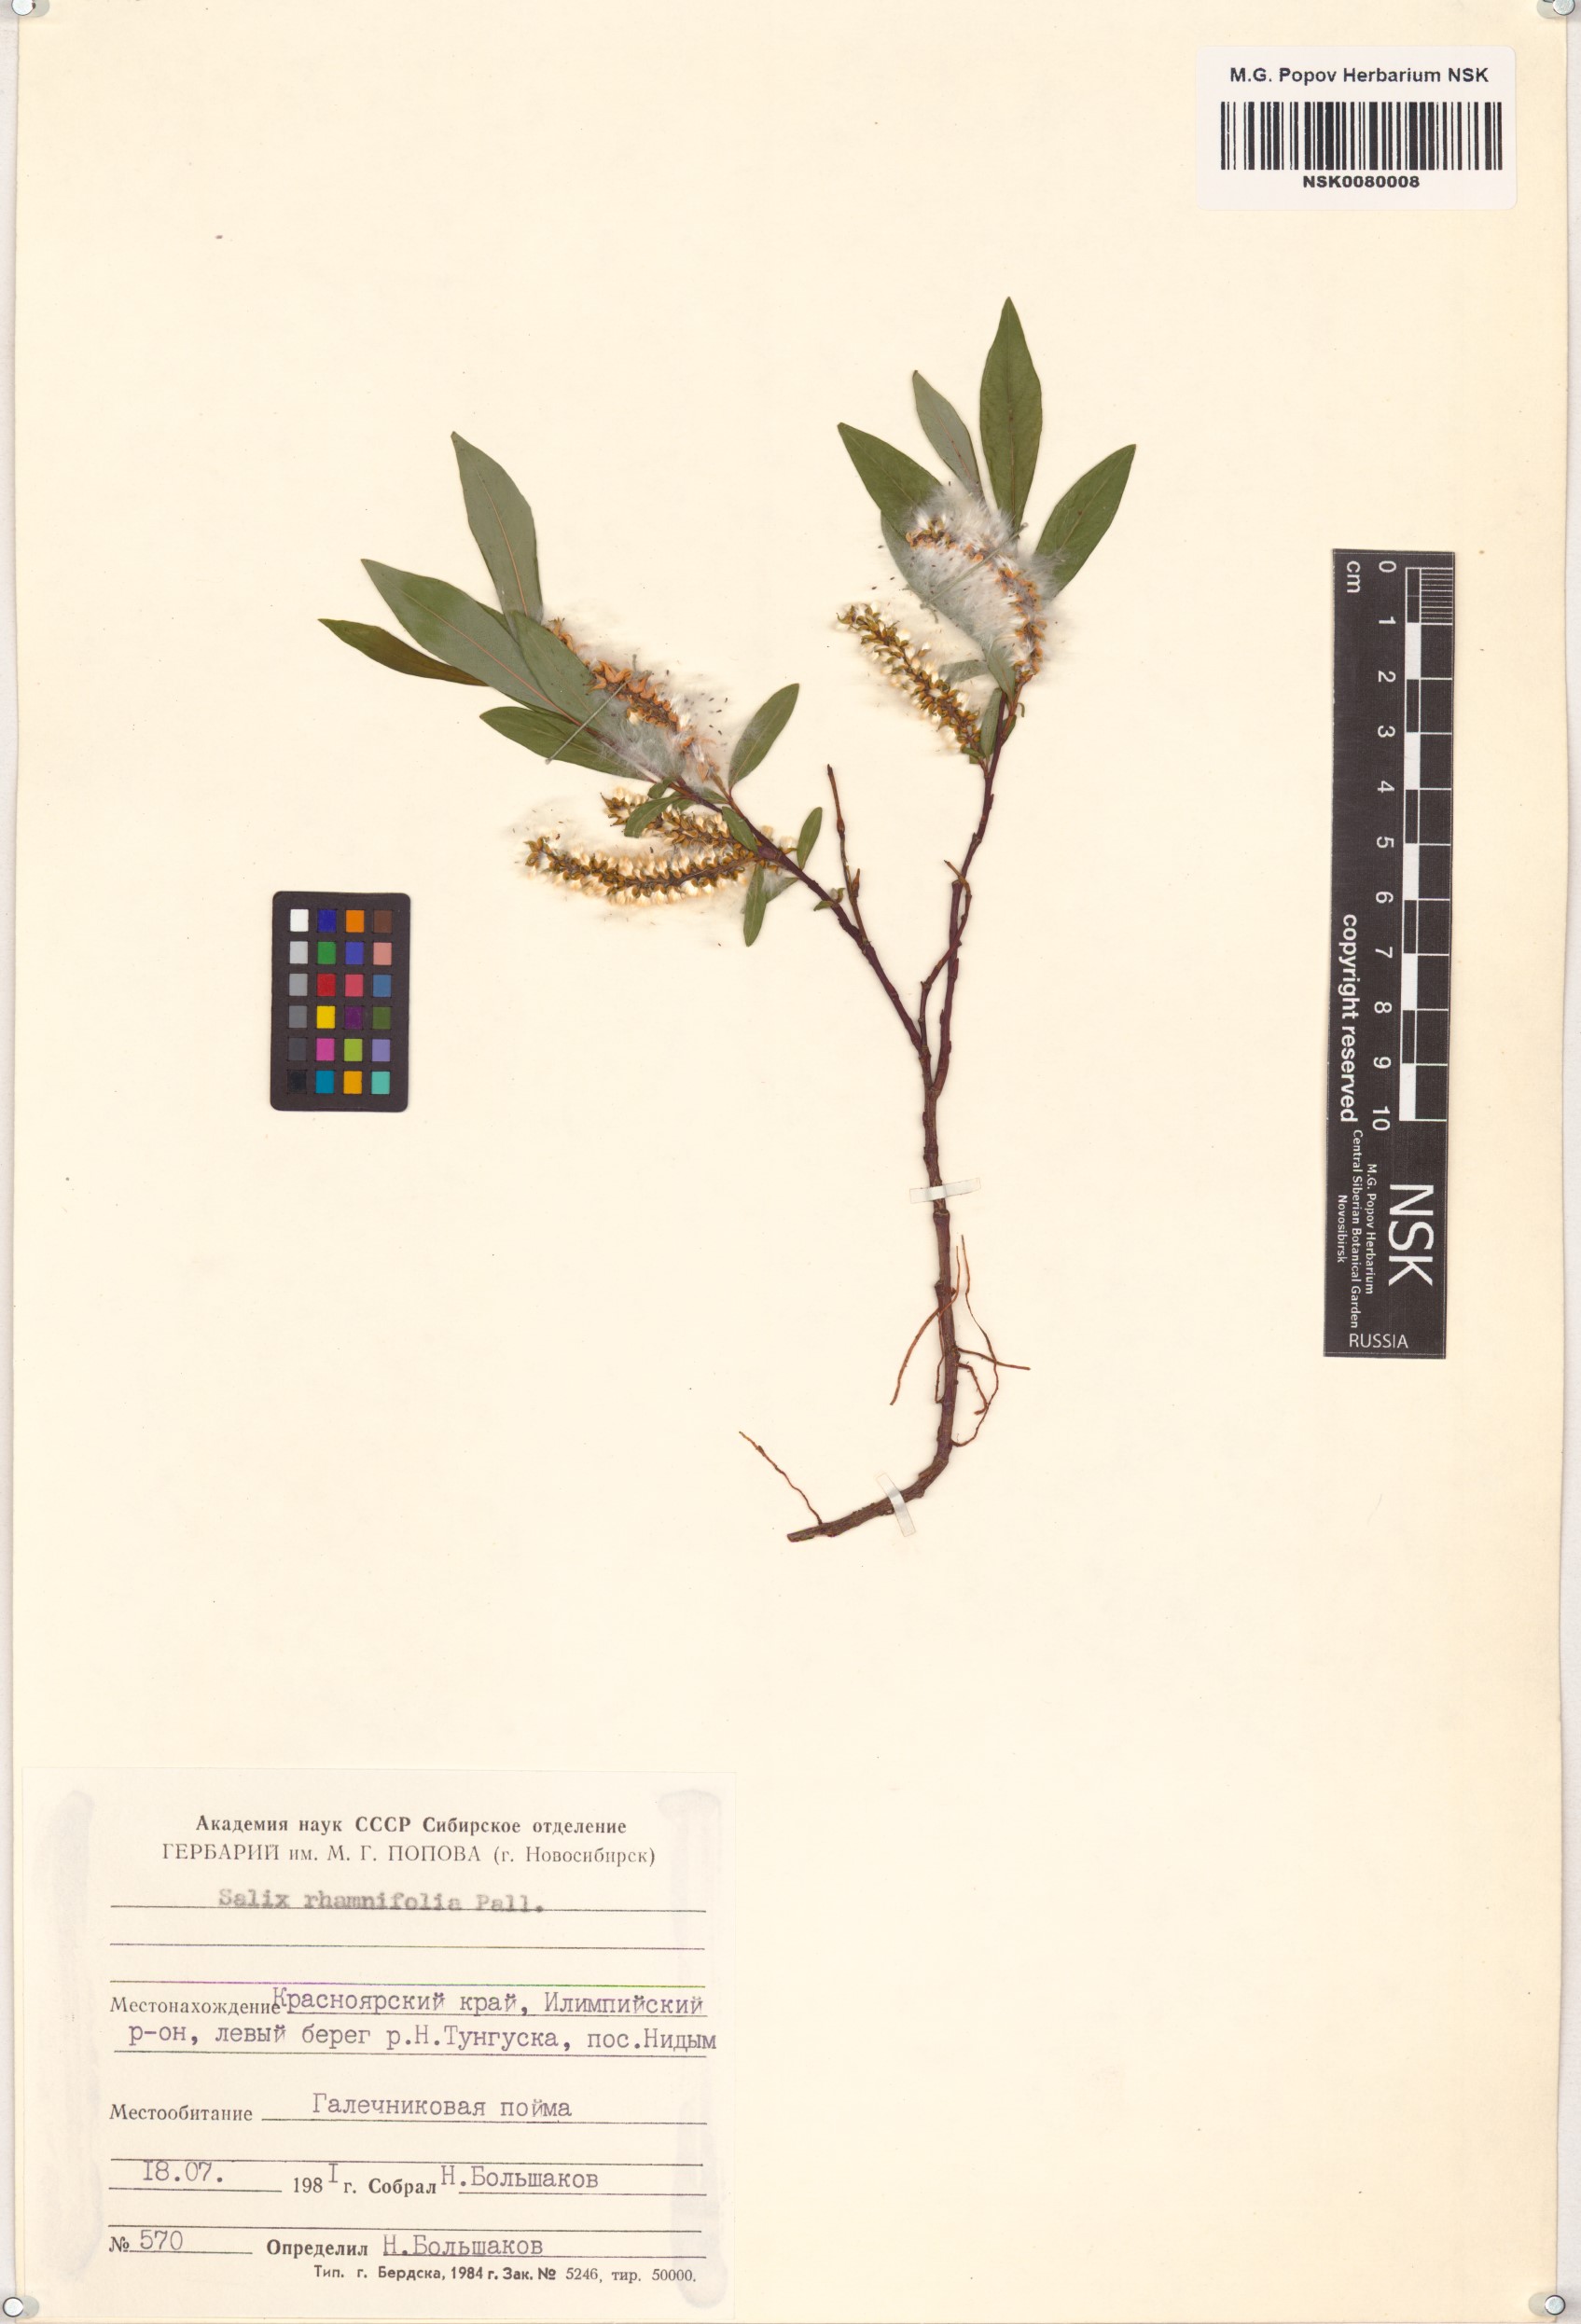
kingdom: Plantae
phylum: Tracheophyta
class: Magnoliopsida
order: Malpighiales
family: Salicaceae
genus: Salix
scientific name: Salix rhamnifolia
